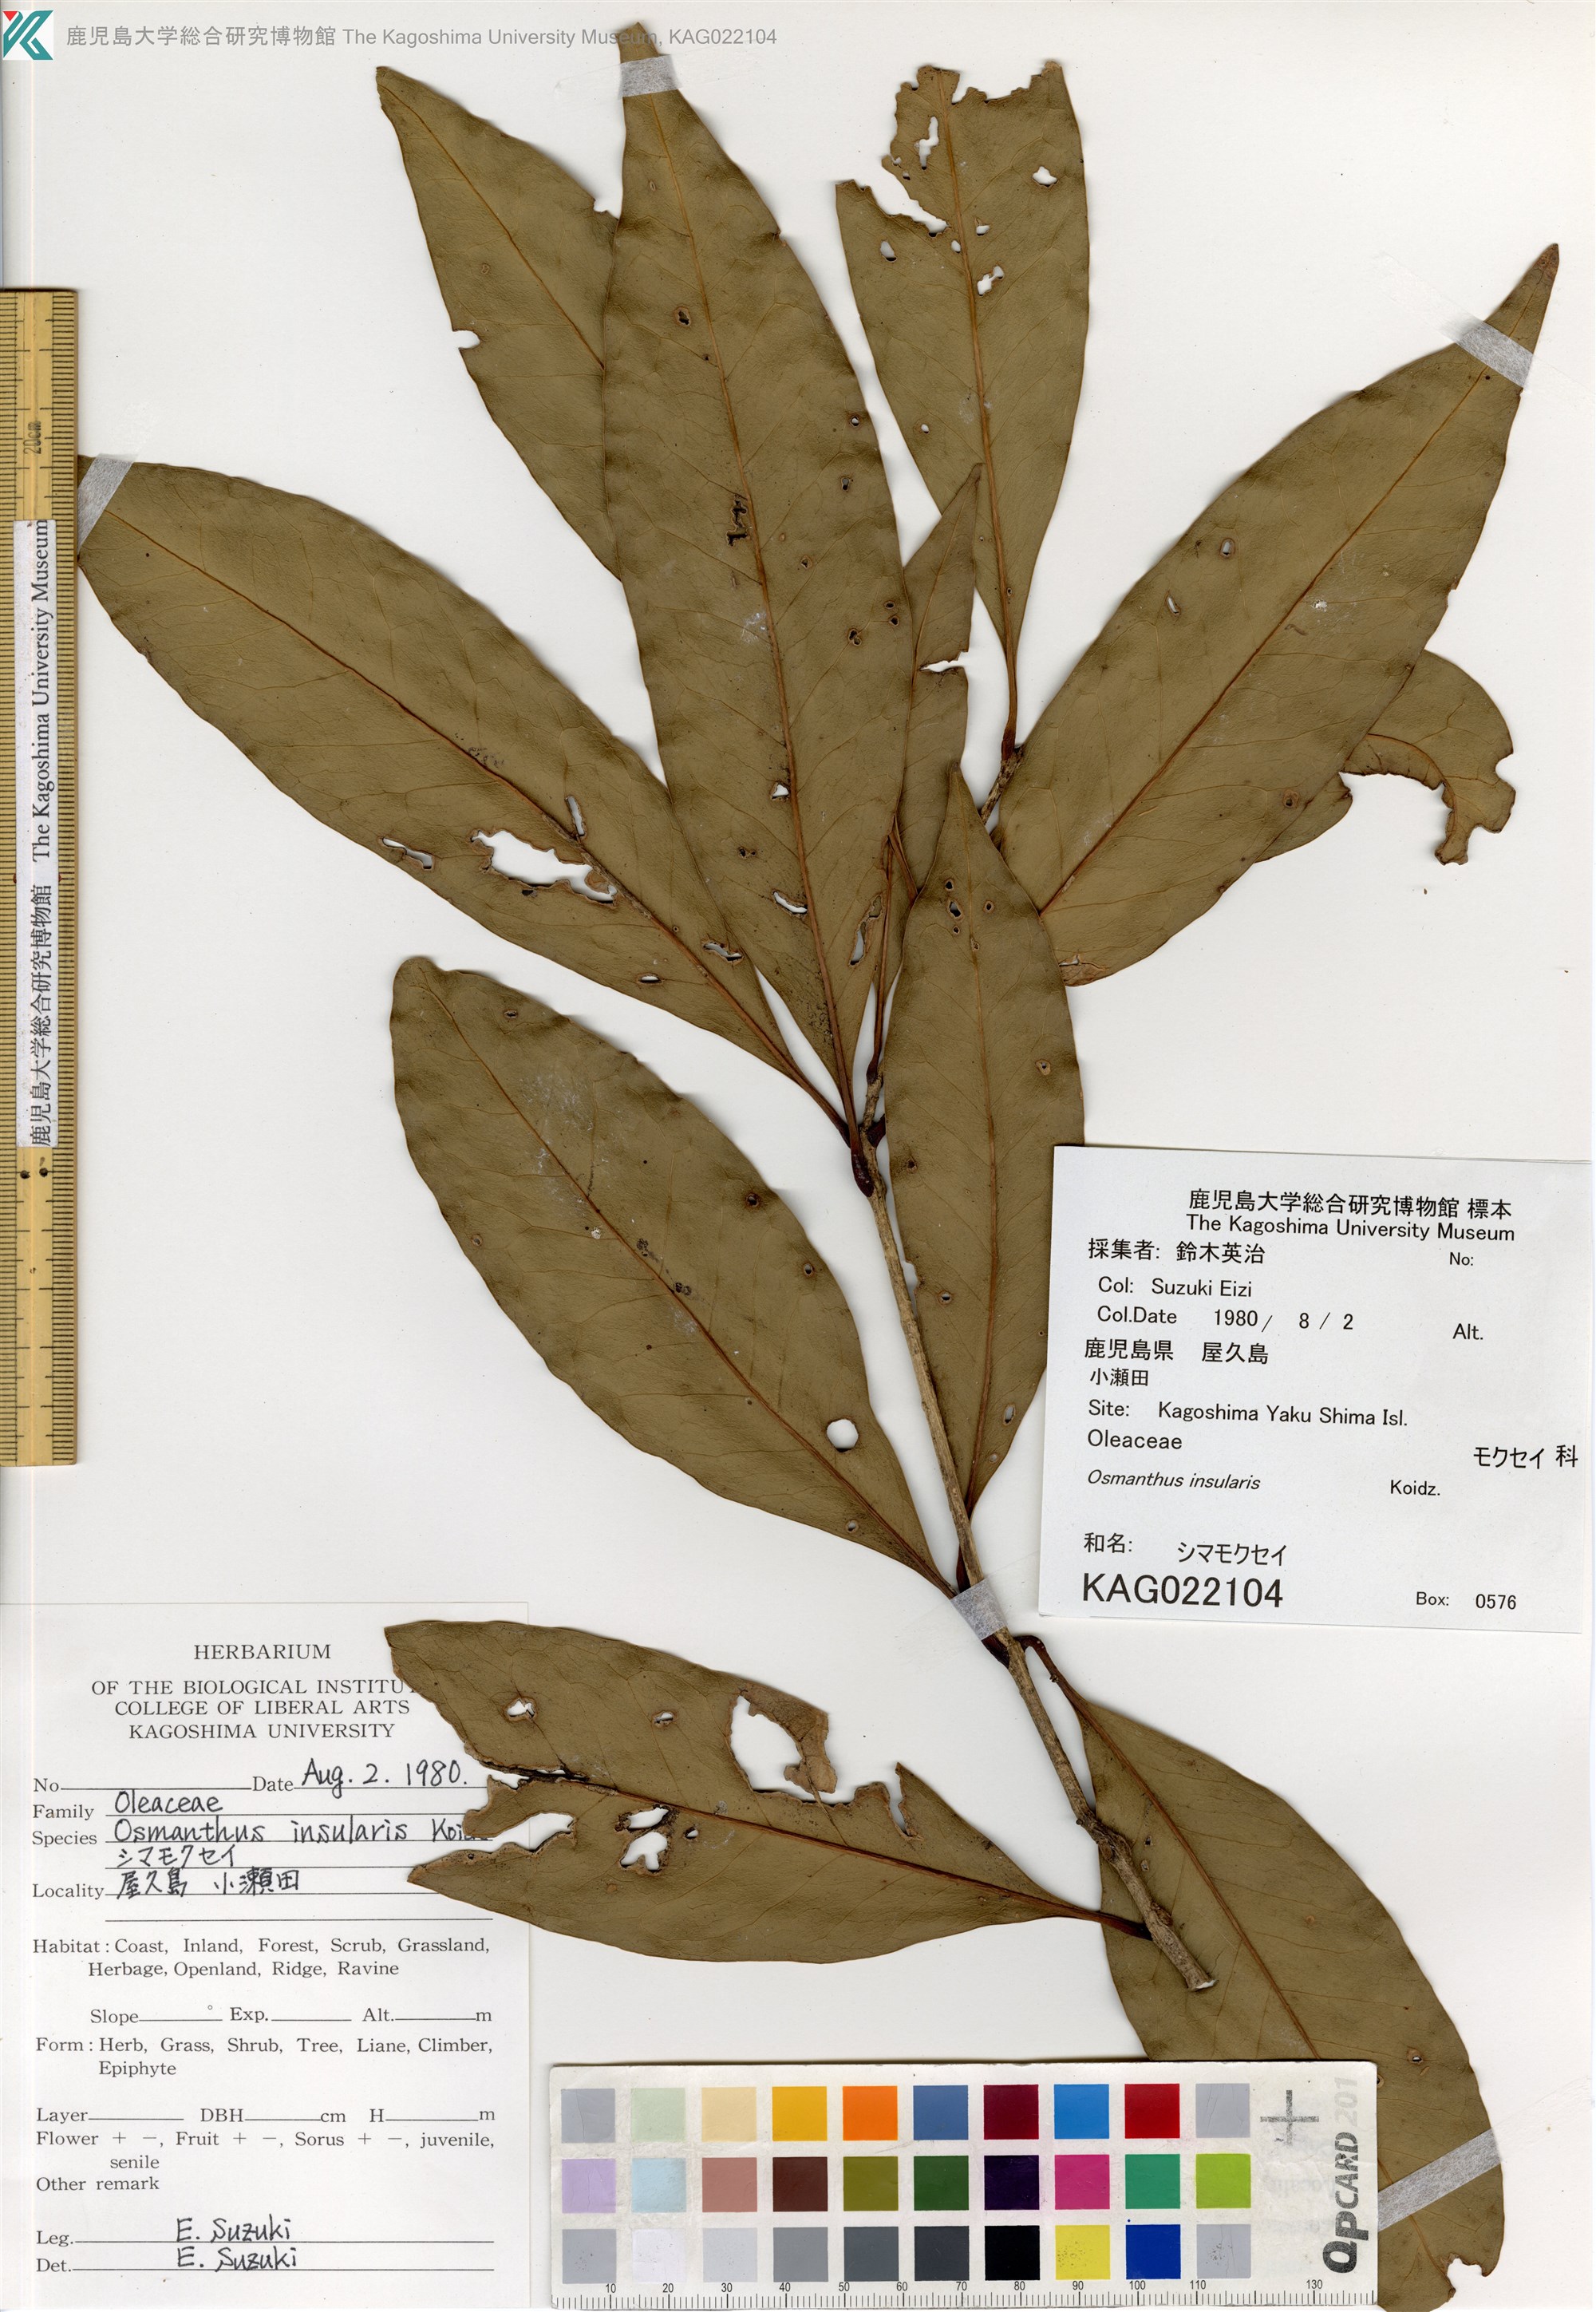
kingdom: Plantae
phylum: Tracheophyta
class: Magnoliopsida
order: Lamiales
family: Oleaceae
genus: Osmanthus
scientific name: Osmanthus insularis
